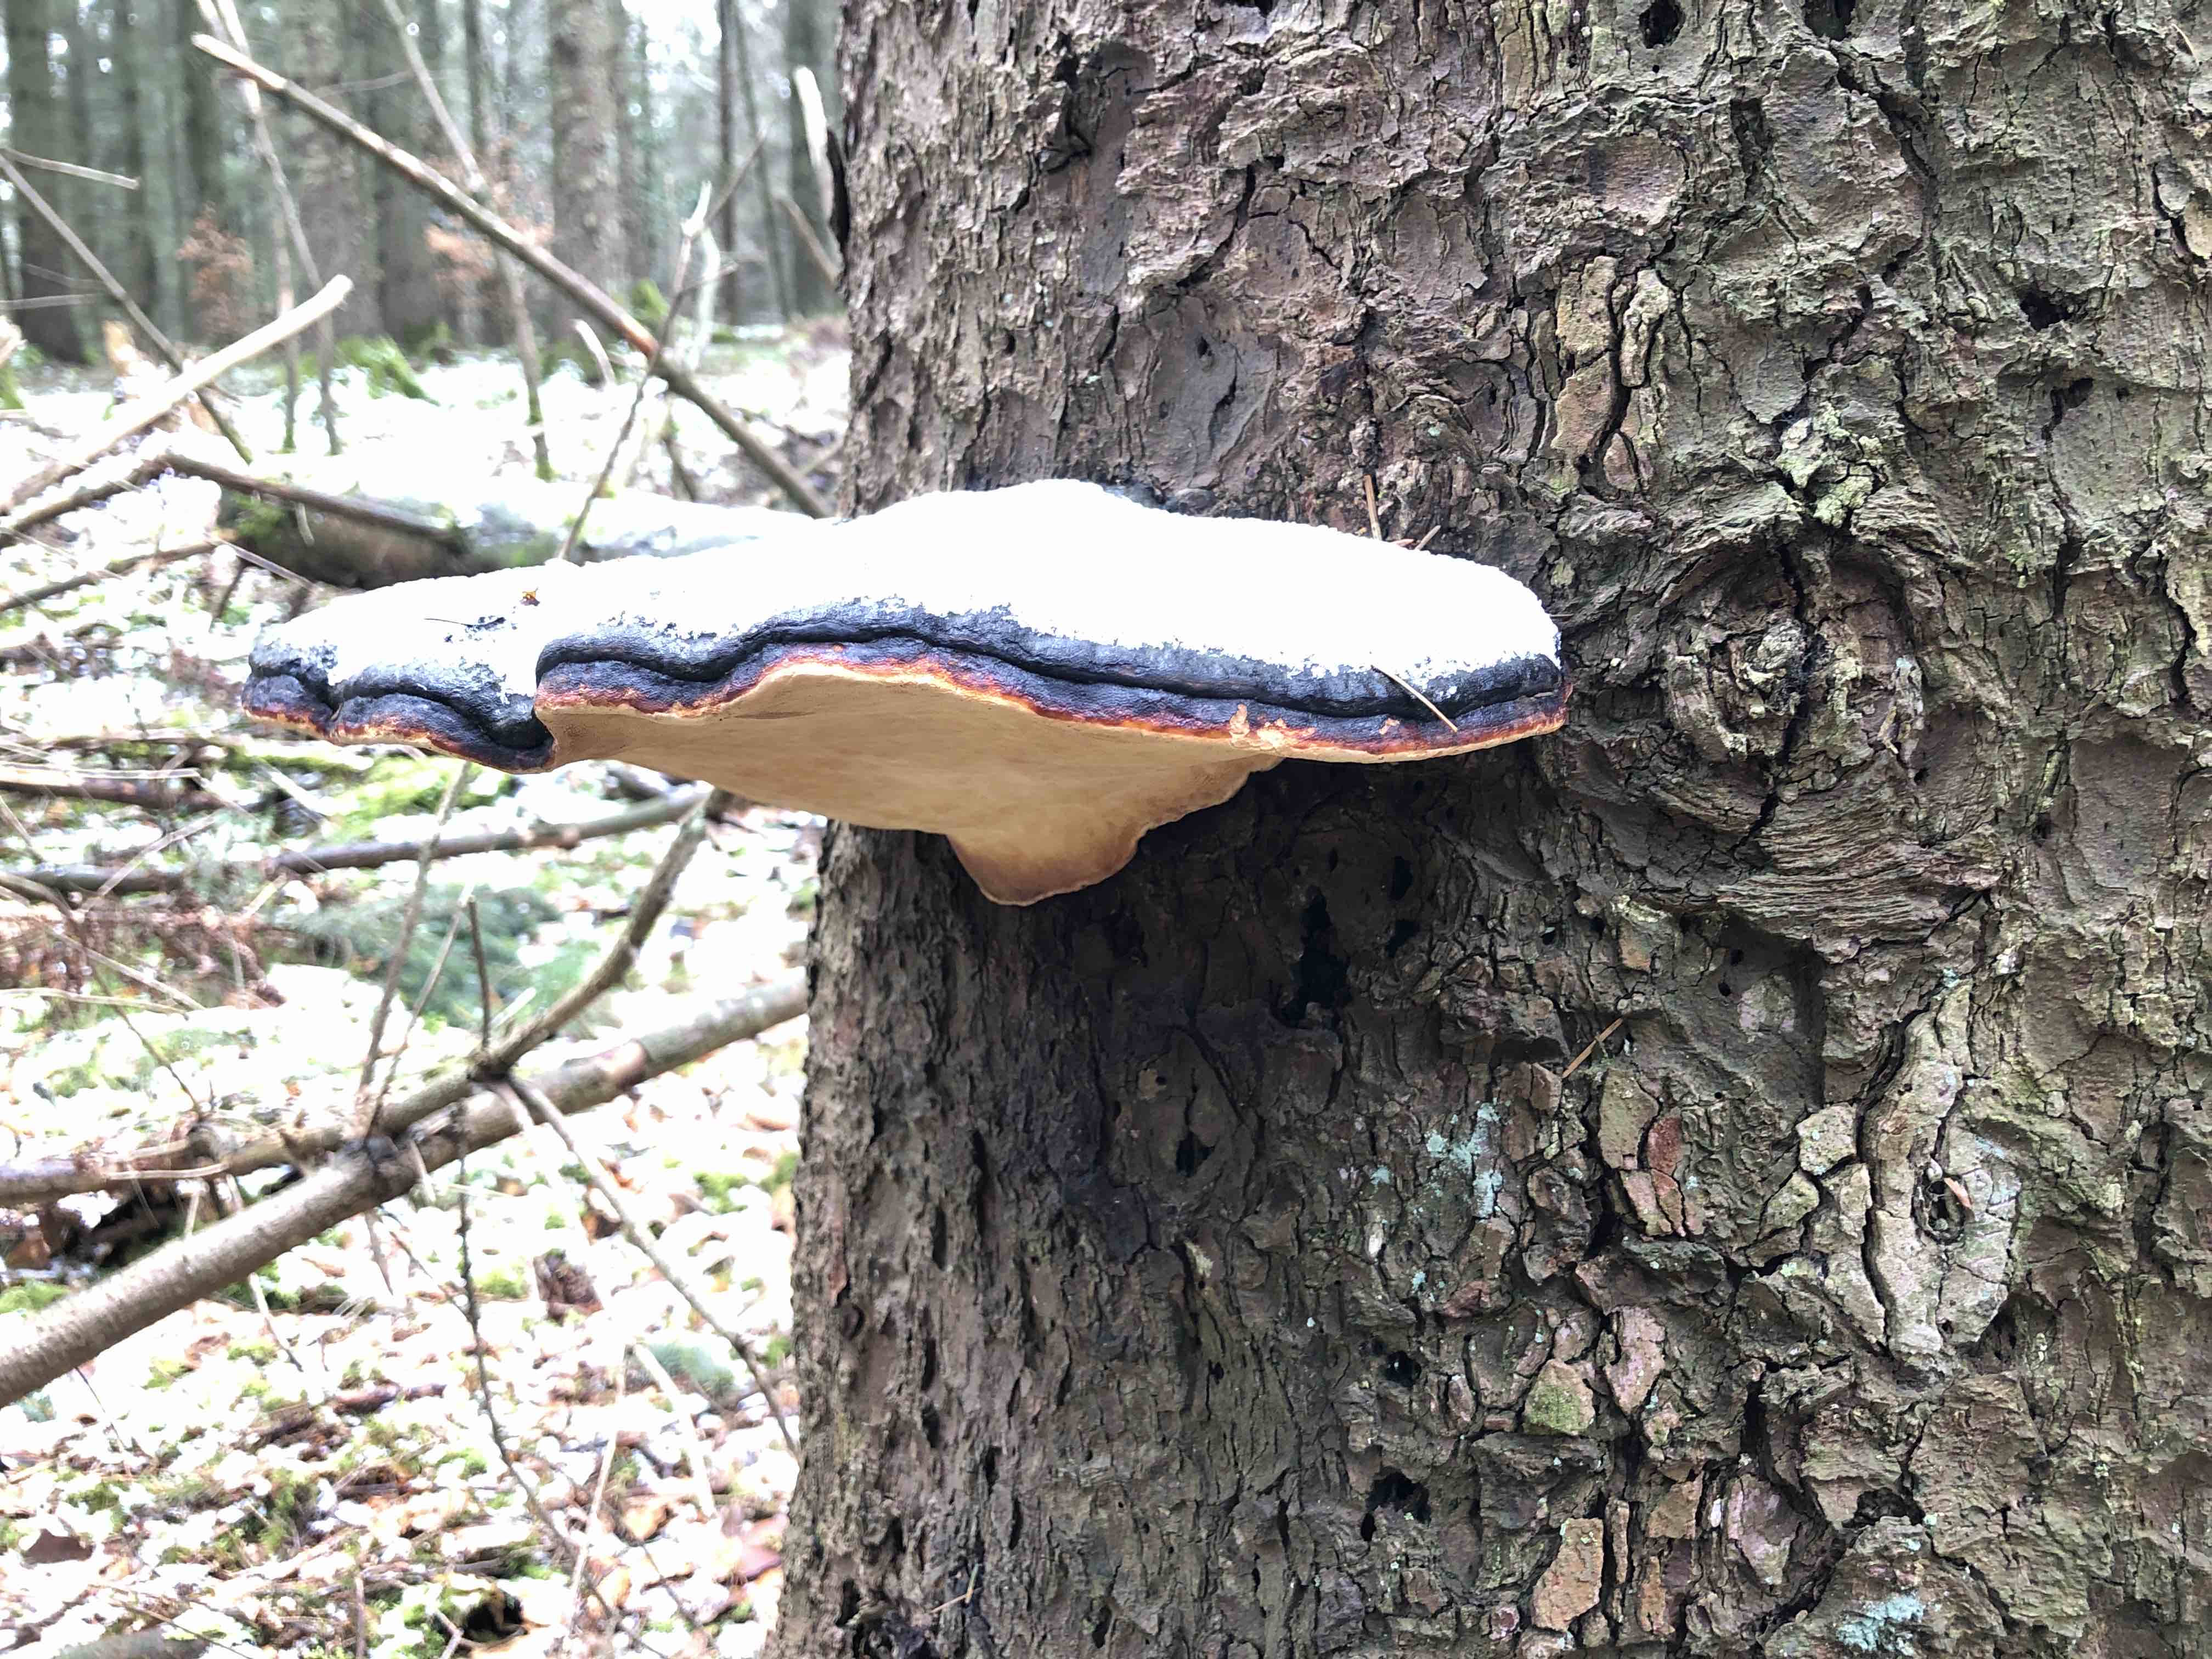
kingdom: Fungi
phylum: Basidiomycota
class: Agaricomycetes
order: Polyporales
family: Fomitopsidaceae
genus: Fomitopsis
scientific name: Fomitopsis pinicola
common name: randbæltet hovporesvamp
